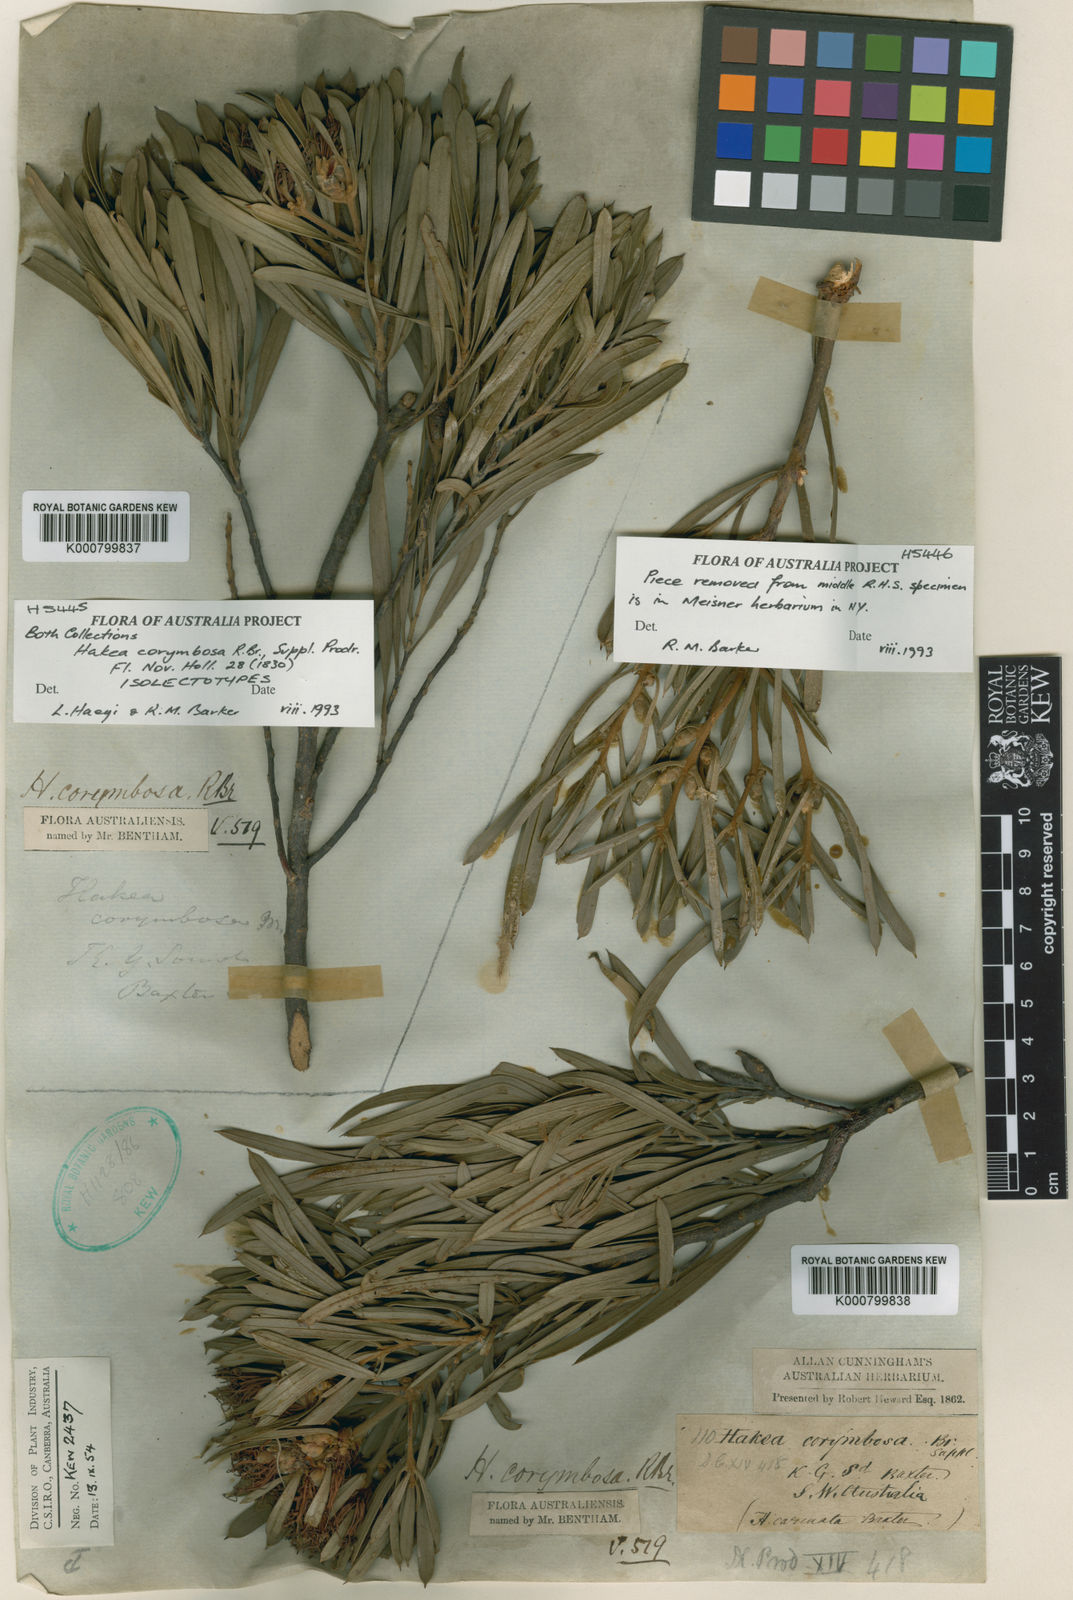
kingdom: Plantae
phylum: Tracheophyta
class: Magnoliopsida
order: Proteales
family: Proteaceae
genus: Hakea
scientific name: Hakea corymbosa
